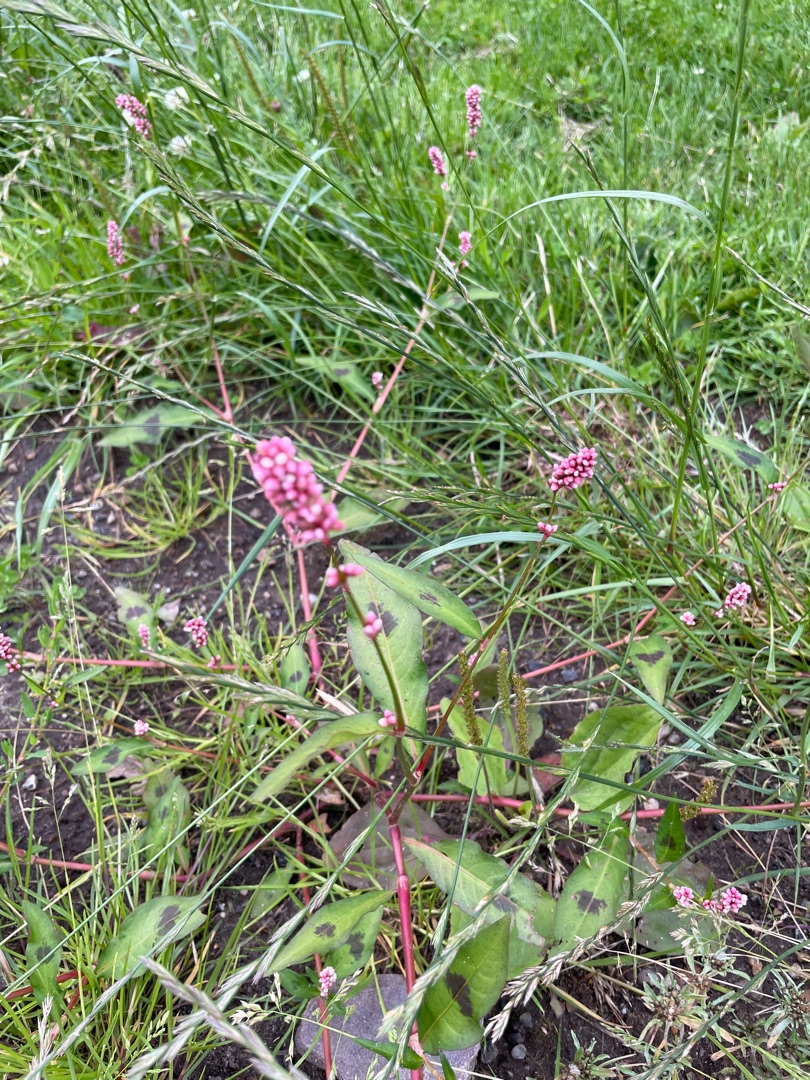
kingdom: Plantae
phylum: Tracheophyta
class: Magnoliopsida
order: Caryophyllales
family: Polygonaceae
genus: Persicaria
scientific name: Persicaria maculosa
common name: Fersken-pileurt
